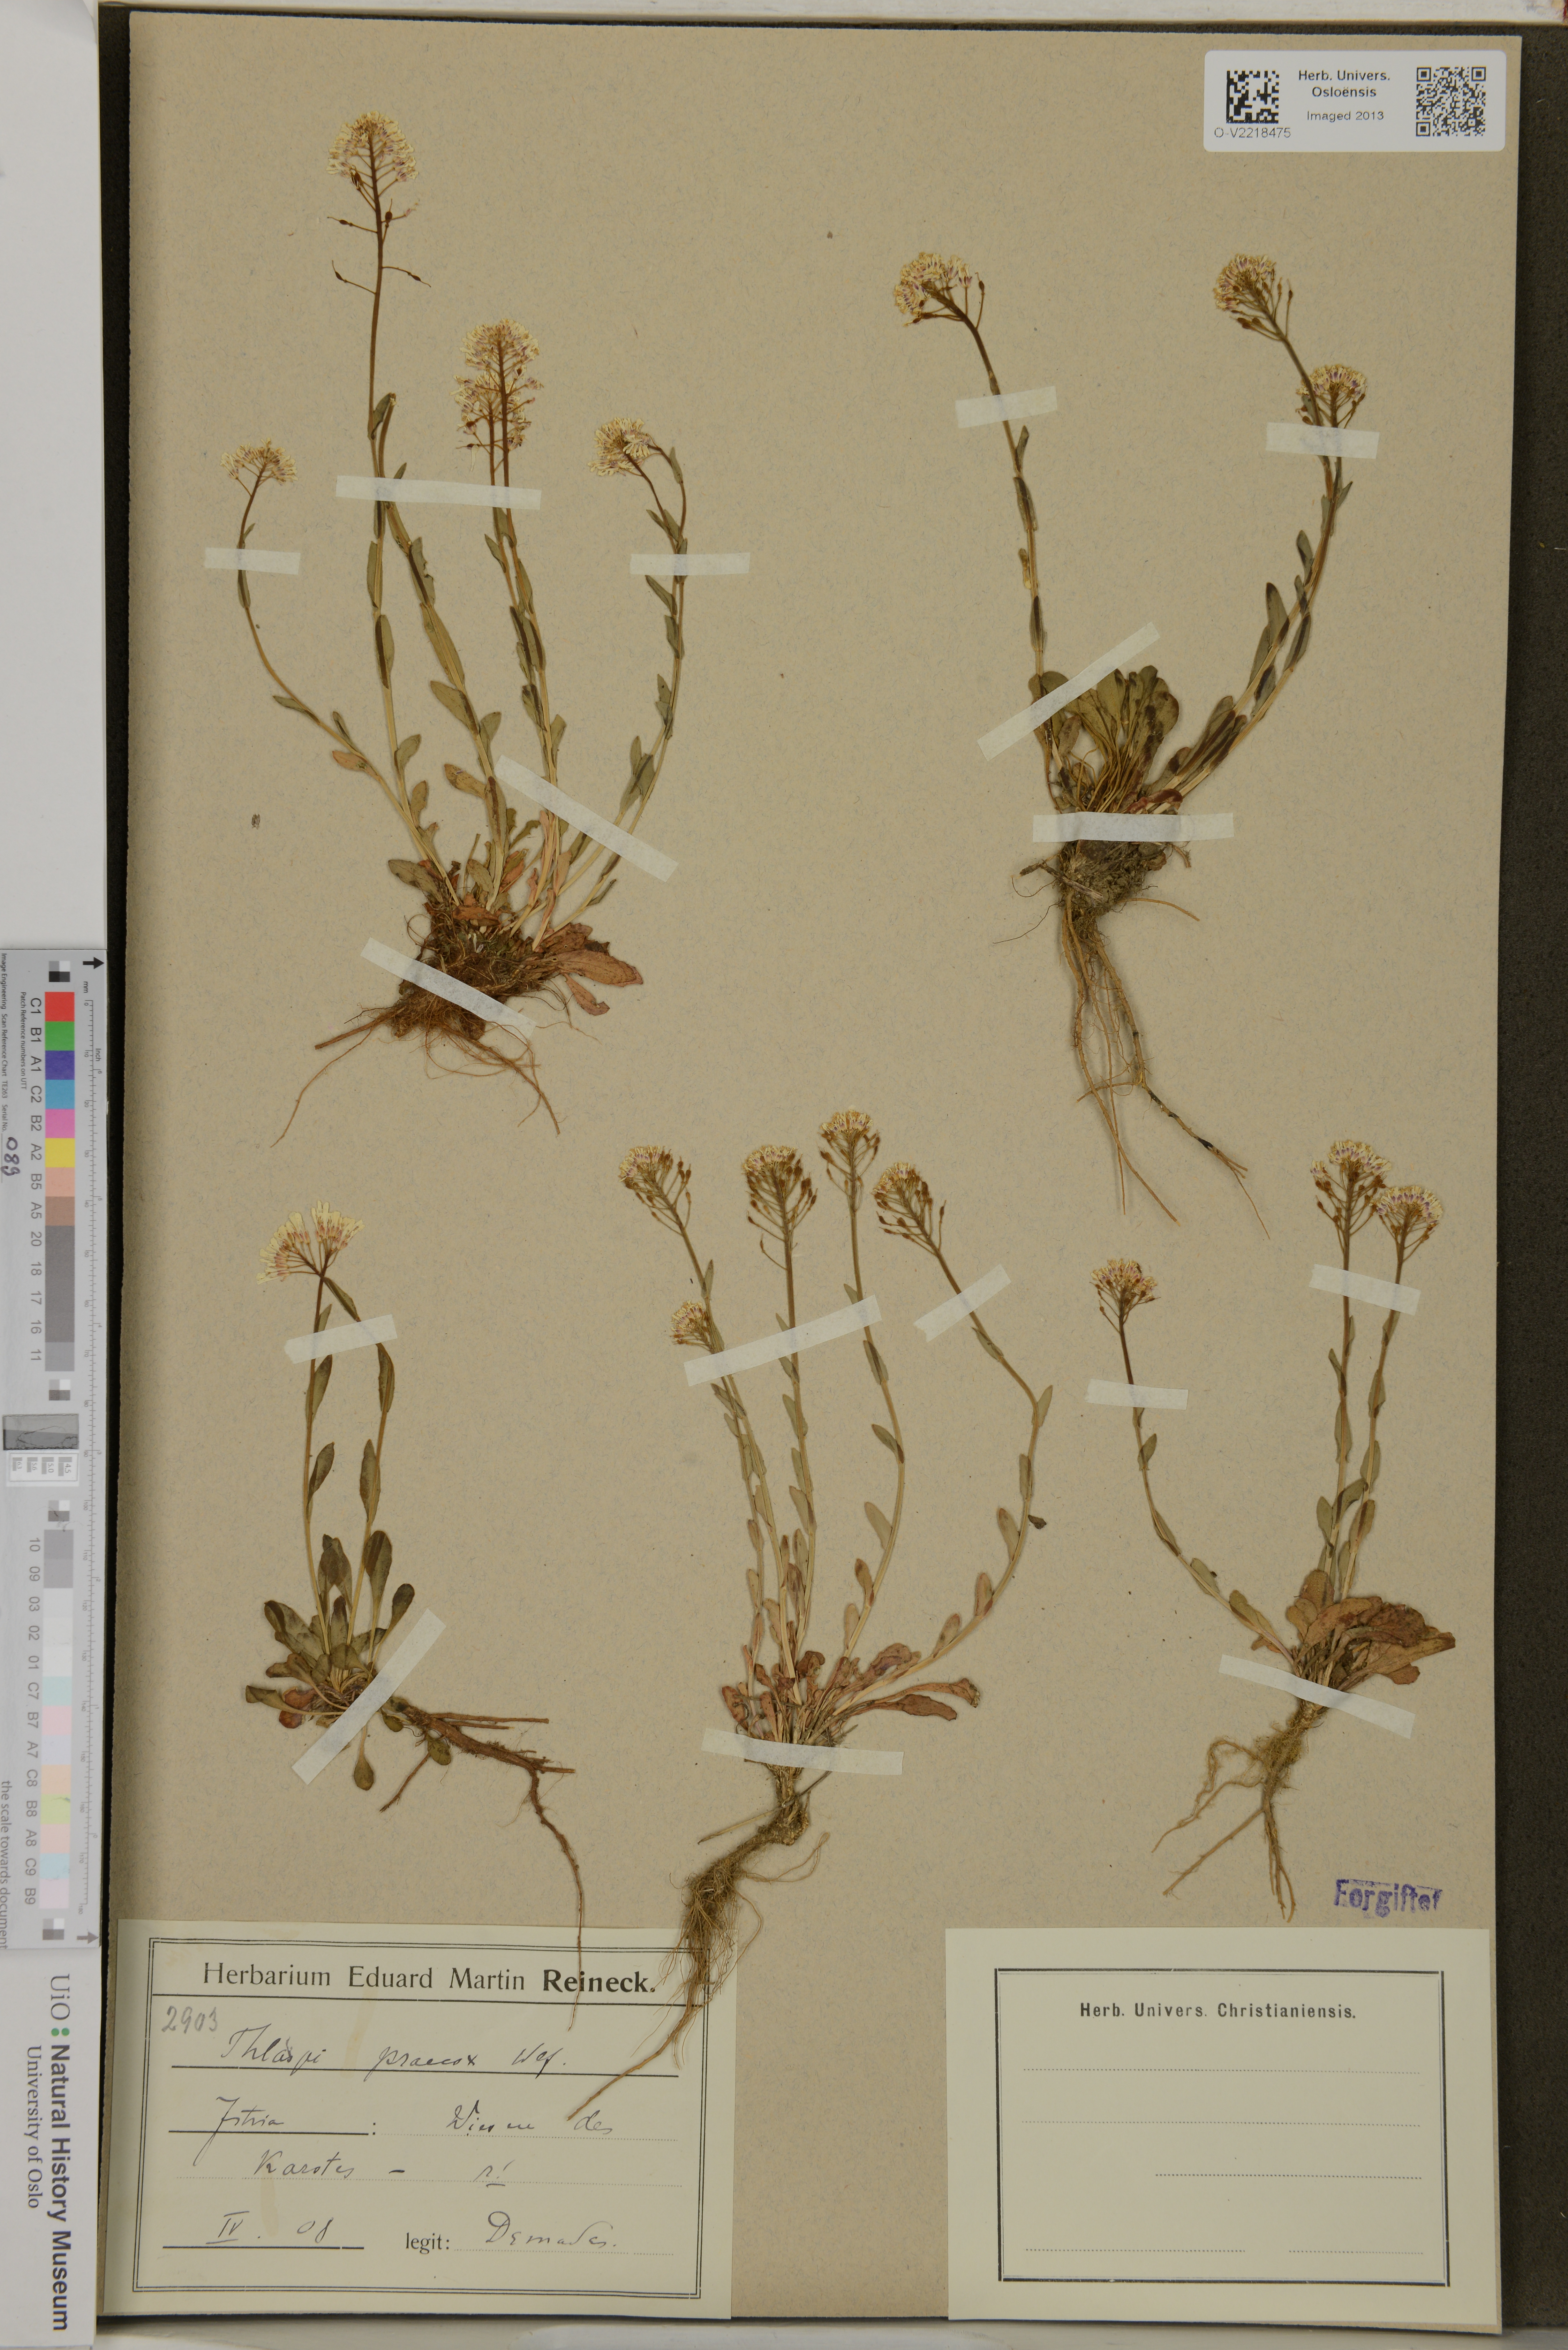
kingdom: Plantae
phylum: Tracheophyta
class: Magnoliopsida
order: Brassicales
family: Brassicaceae
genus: Thlaspi
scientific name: Thlaspi praecox
